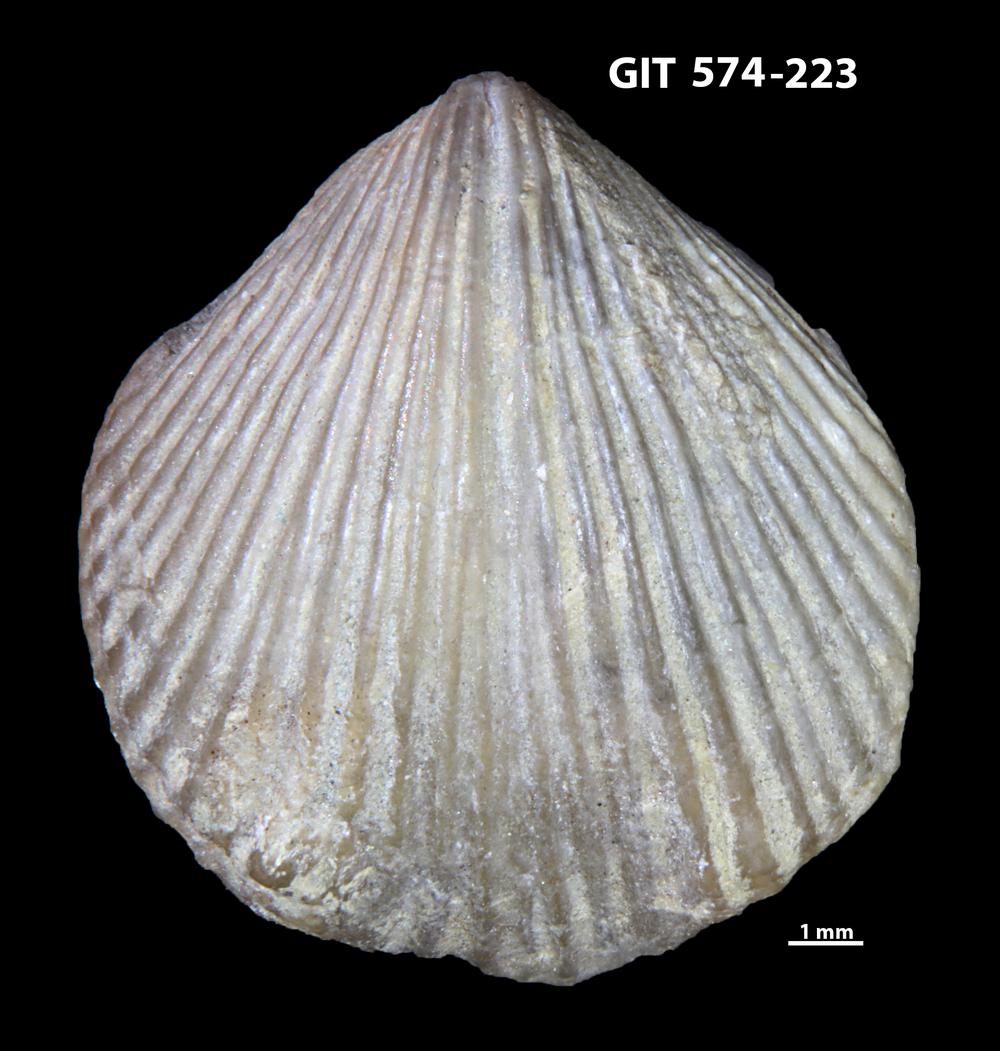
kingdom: Animalia
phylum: Brachiopoda
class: Rhynchonellata
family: Atrypinidae
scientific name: Atrypinidae
